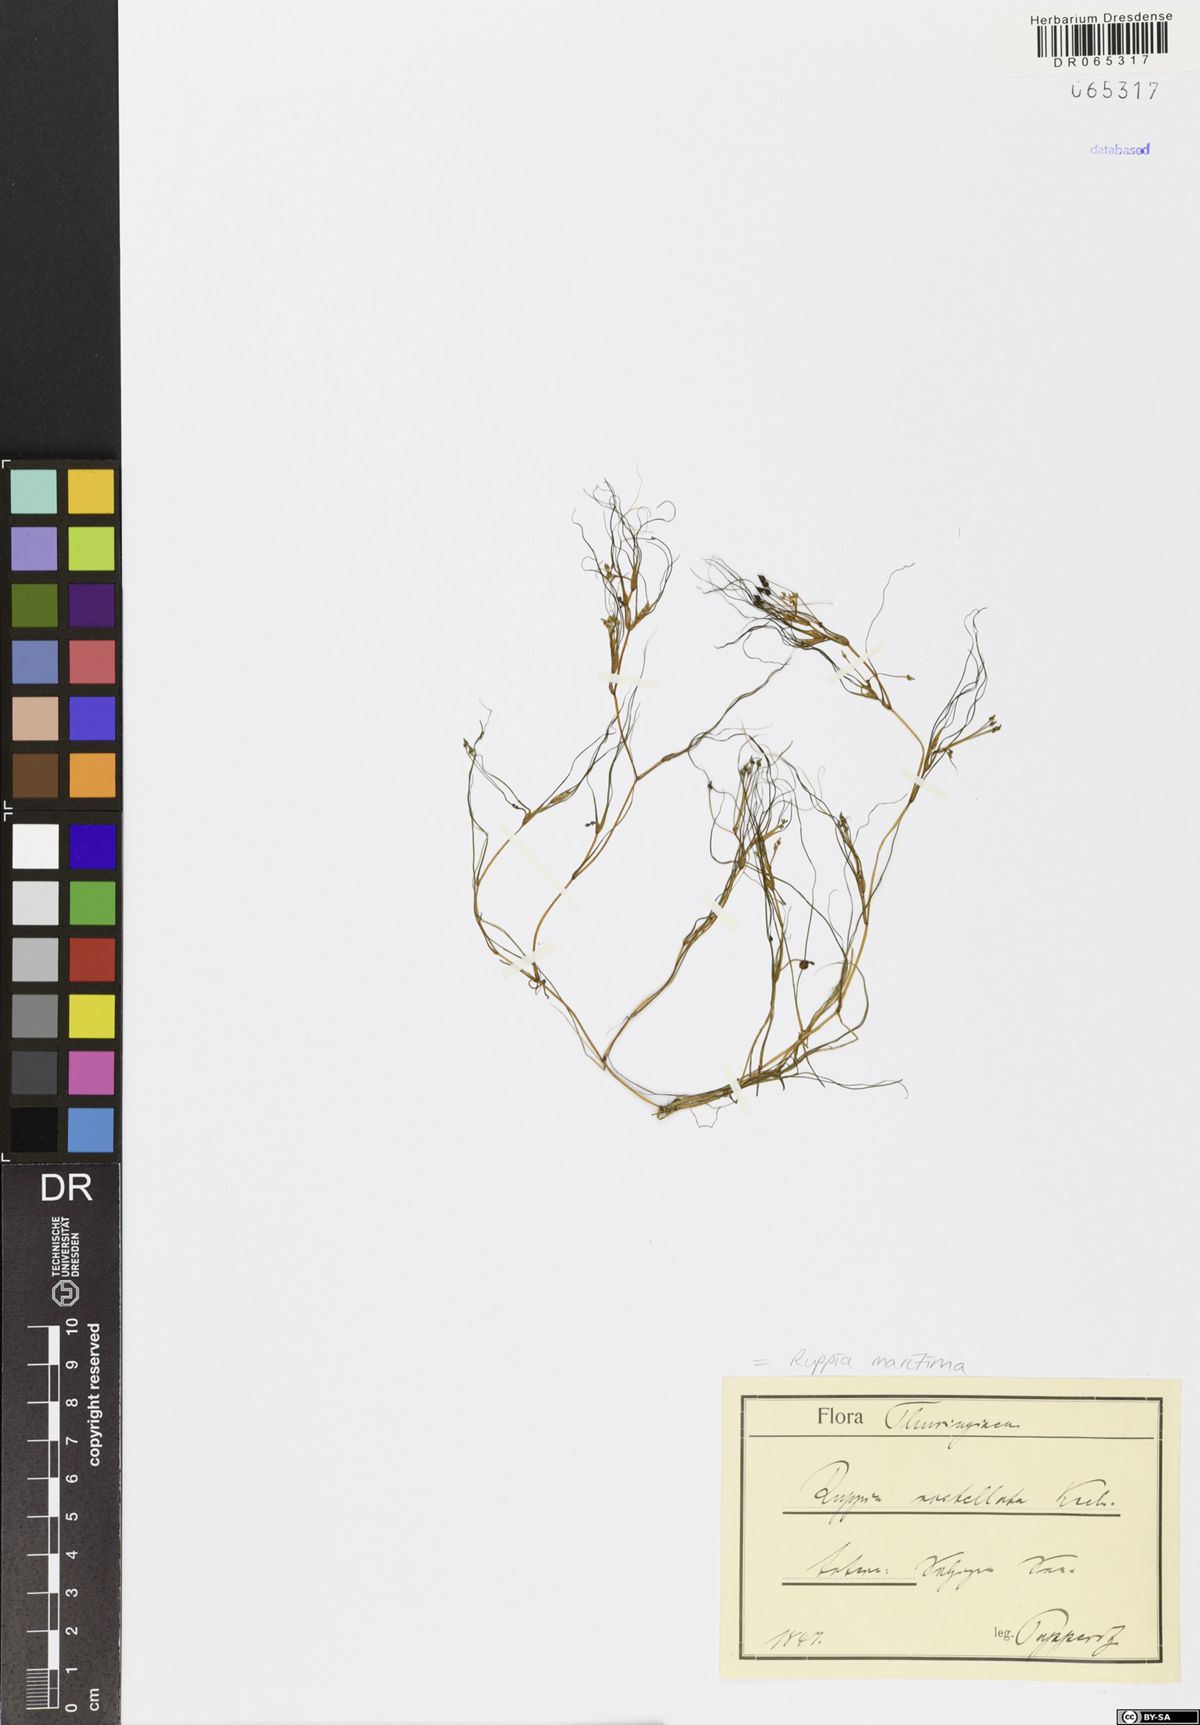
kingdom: Plantae
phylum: Tracheophyta
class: Liliopsida
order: Alismatales
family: Ruppiaceae
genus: Ruppia
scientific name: Ruppia maritima
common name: Beaked tasselweed
